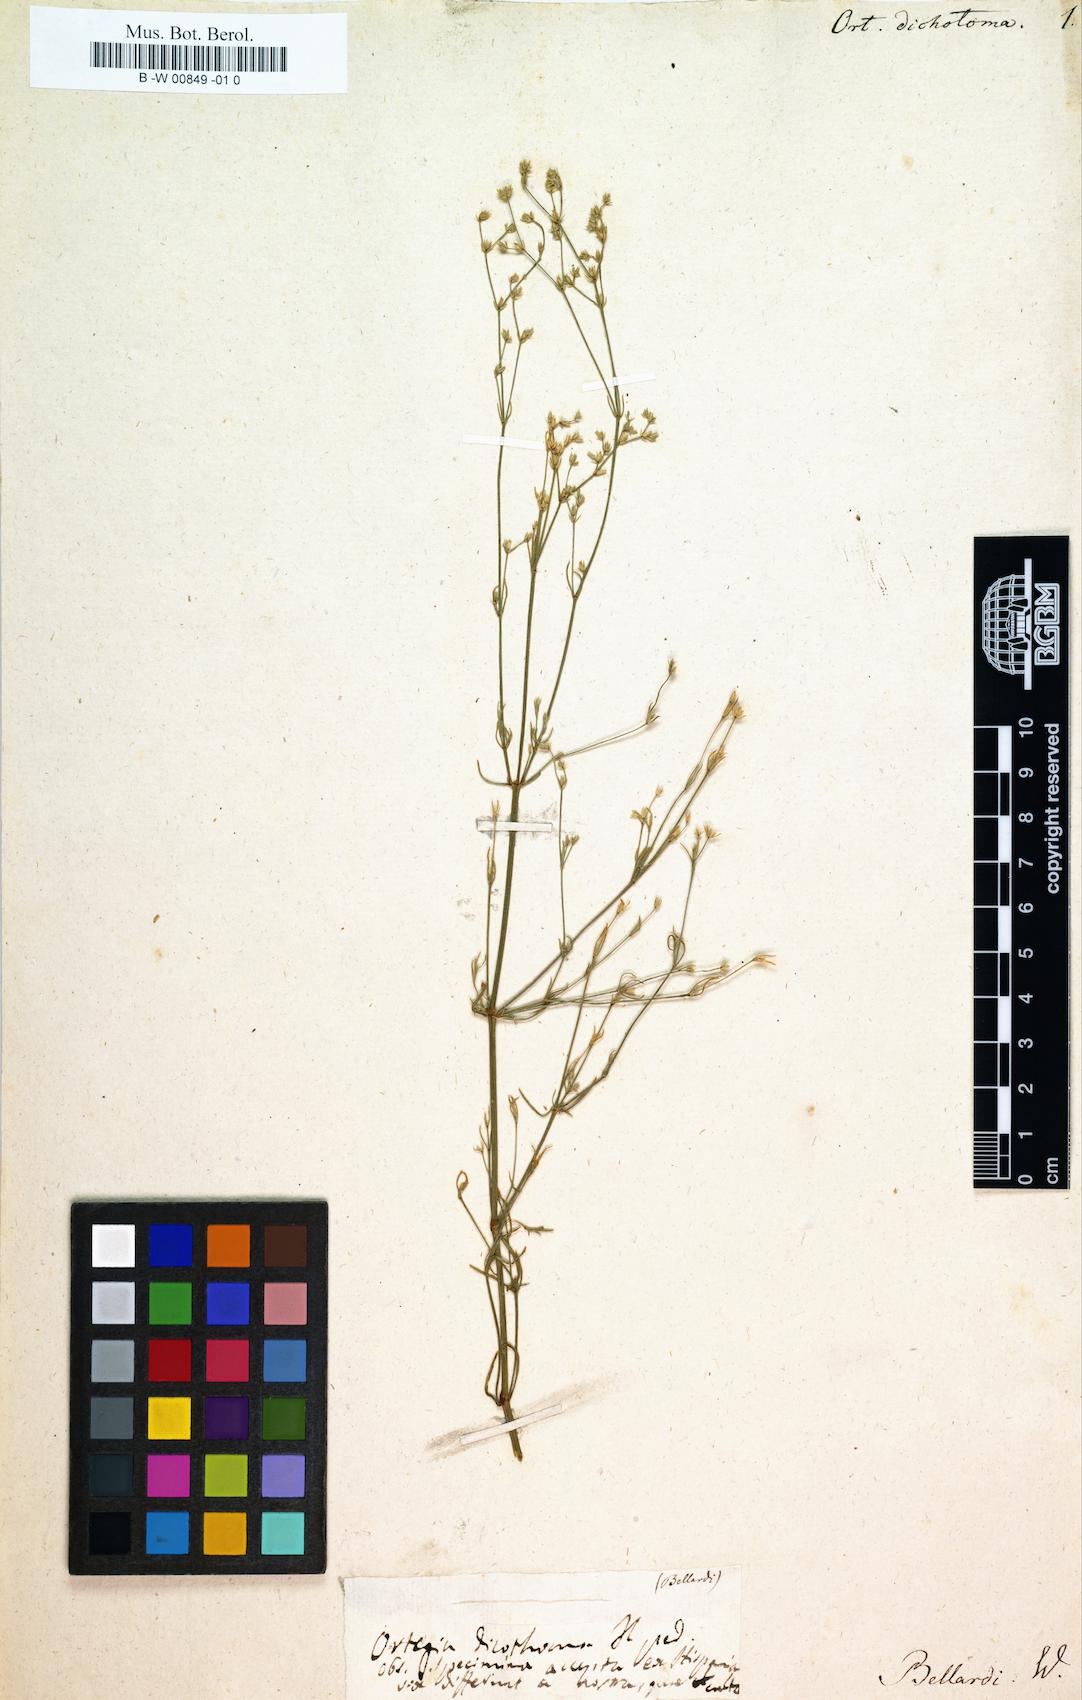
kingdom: Plantae
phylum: Tracheophyta
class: Magnoliopsida
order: Caryophyllales
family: Caryophyllaceae
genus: Ortegia
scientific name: Ortegia hispanica
